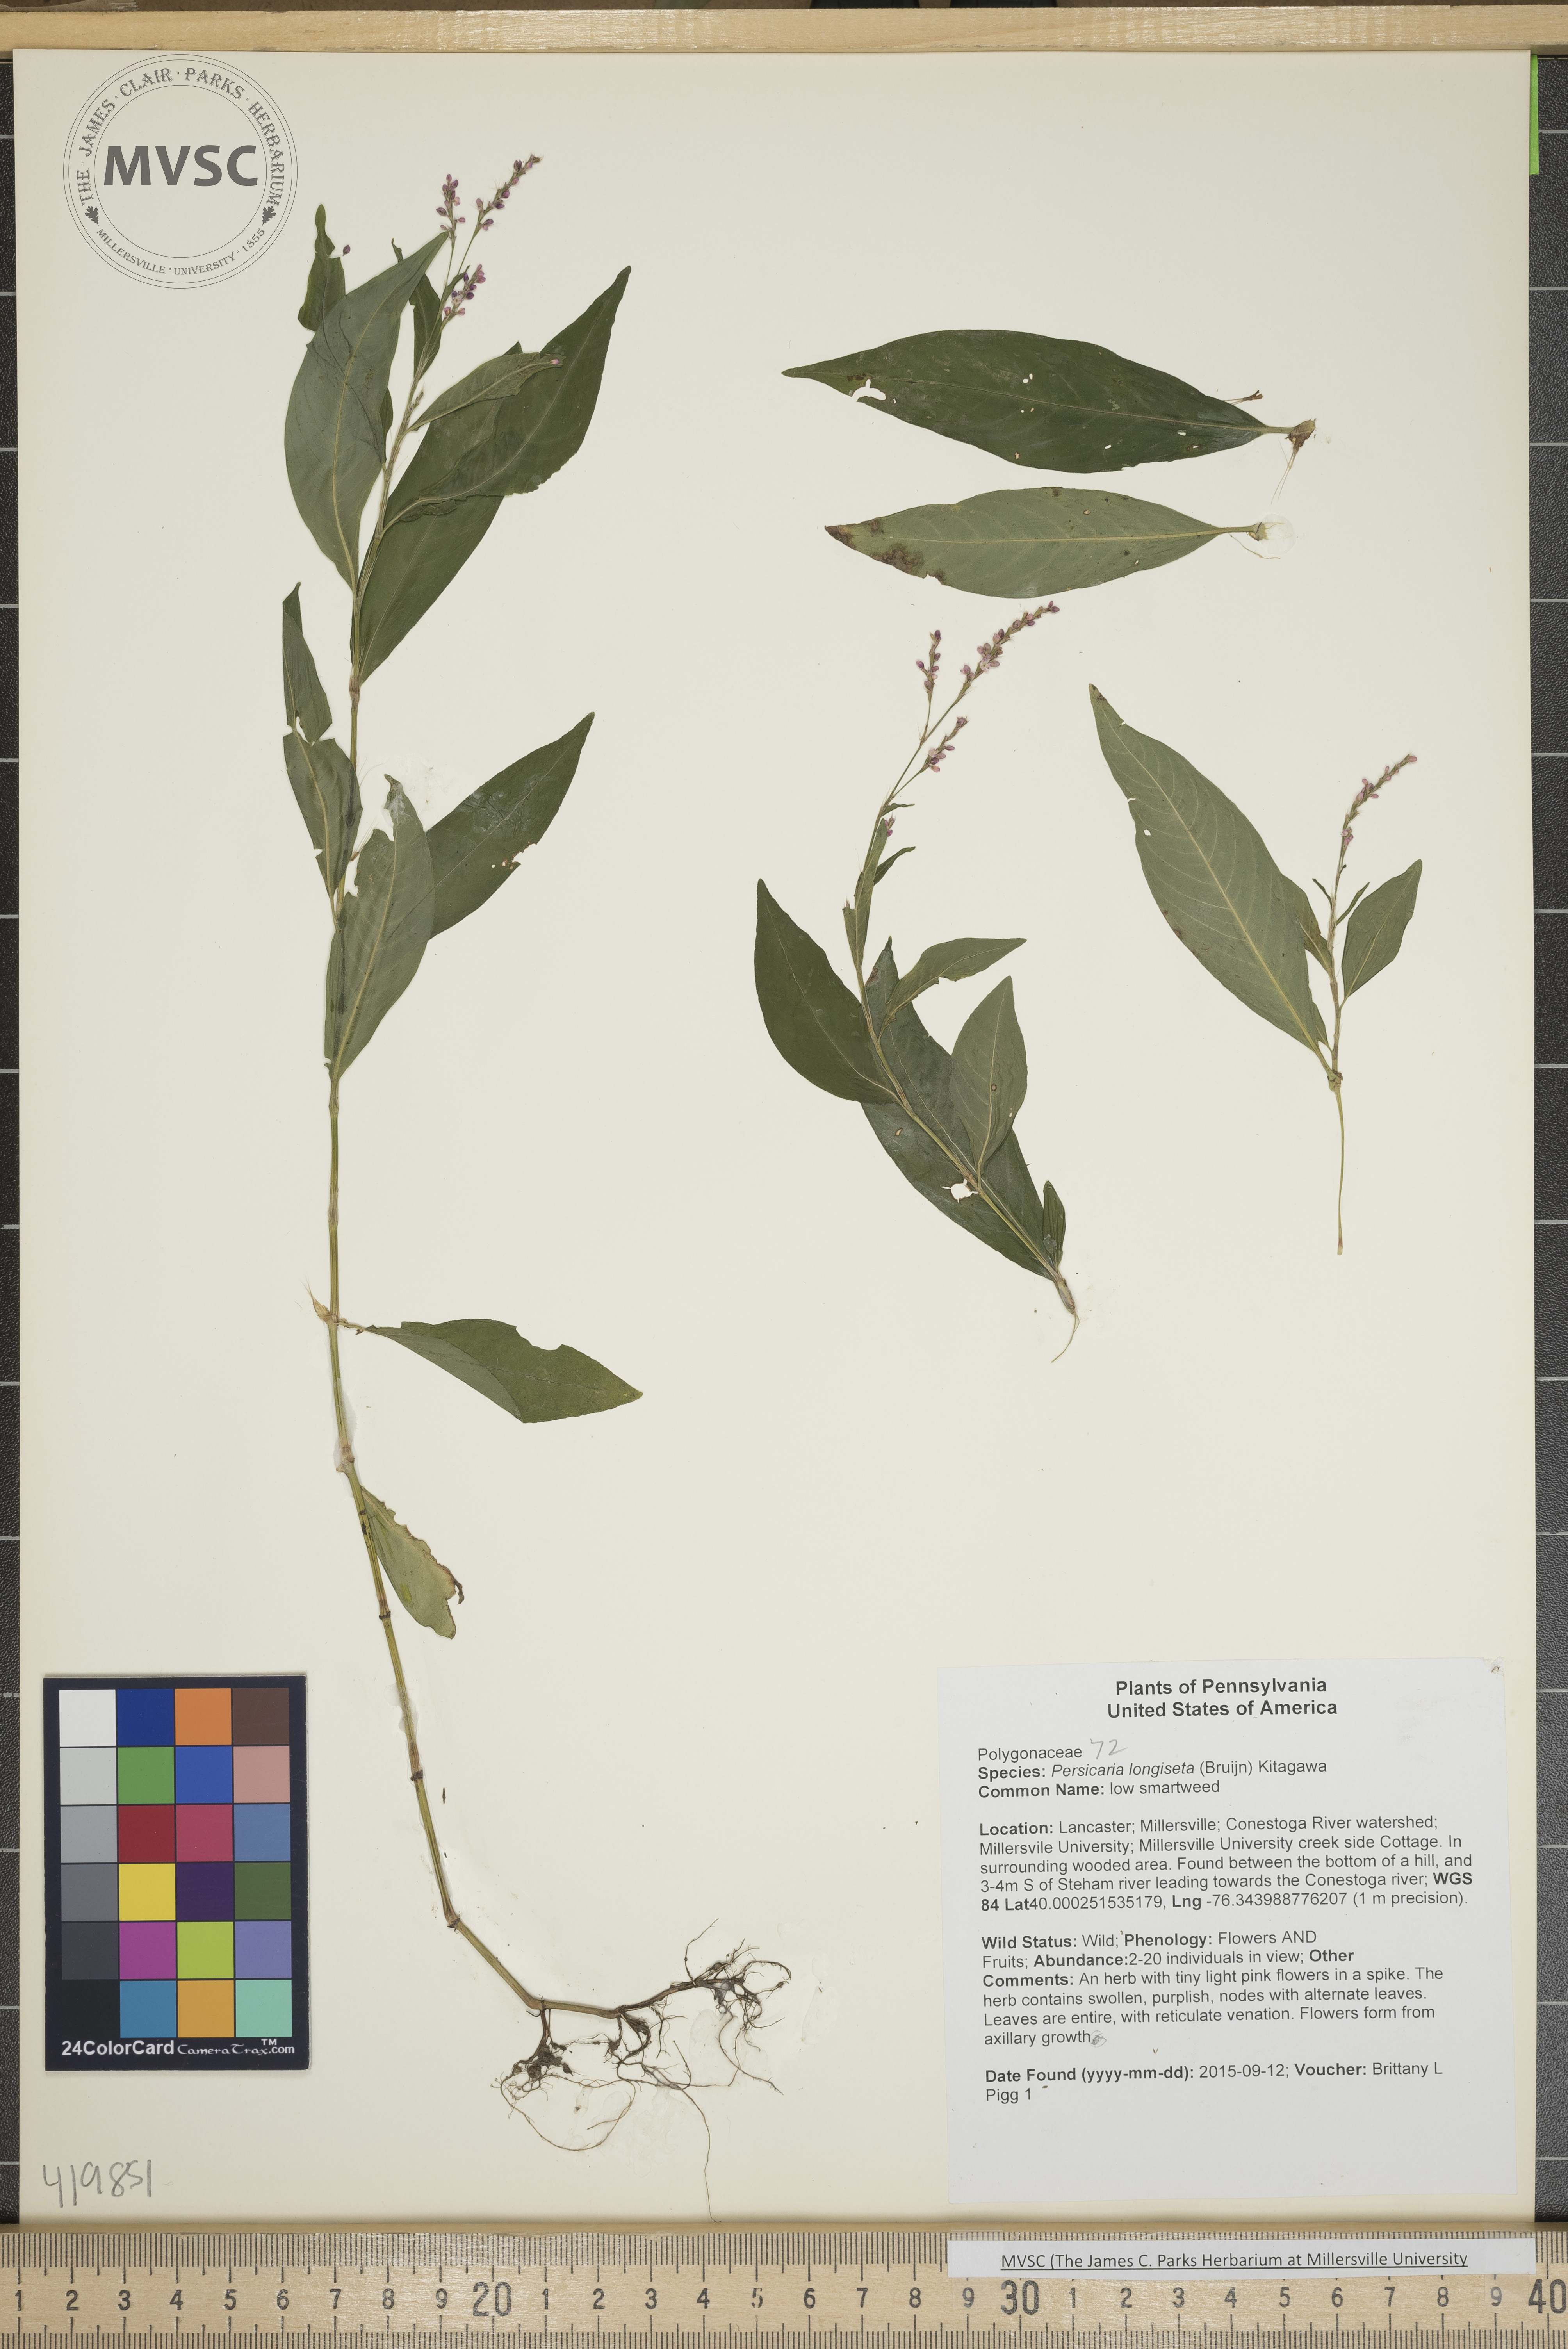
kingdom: Plantae
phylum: Tracheophyta
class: Magnoliopsida
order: Caryophyllales
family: Polygonaceae
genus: Persicaria
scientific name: Persicaria longiseta
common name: low smartweed
